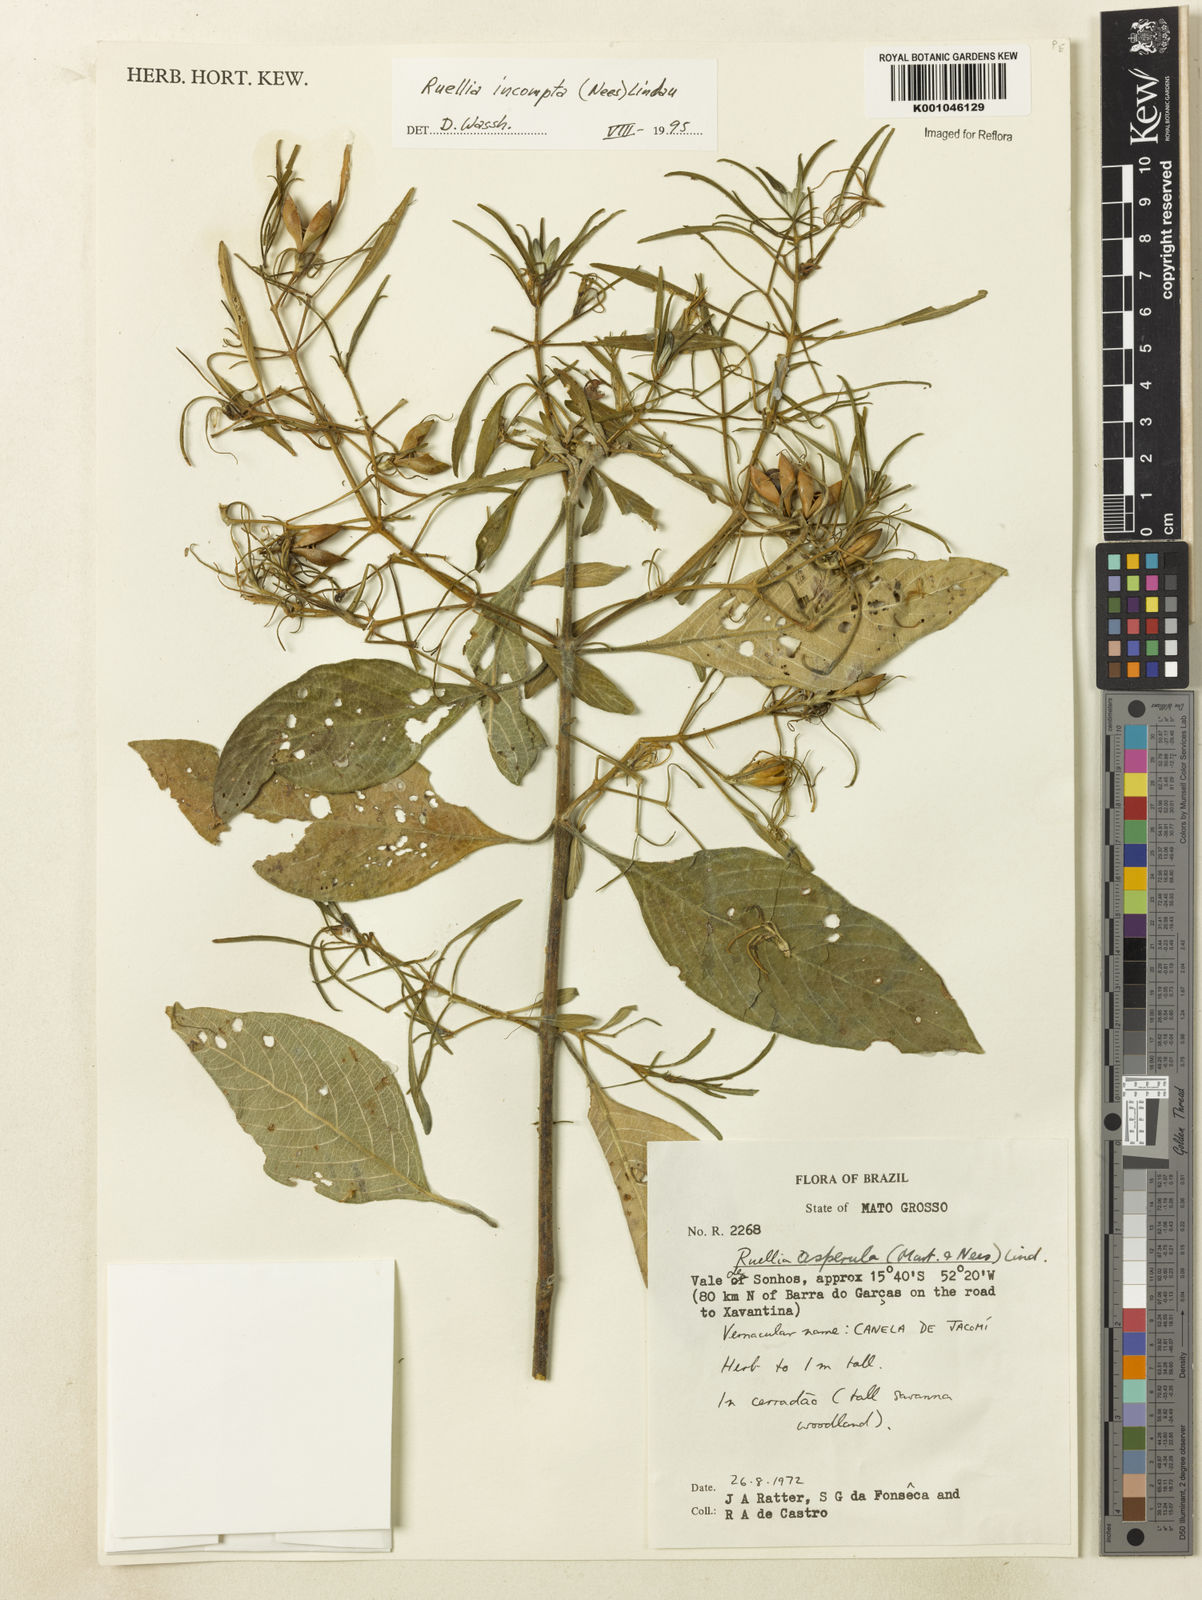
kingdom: Plantae
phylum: Tracheophyta
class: Magnoliopsida
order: Lamiales
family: Acanthaceae
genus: Ruellia
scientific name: Ruellia
